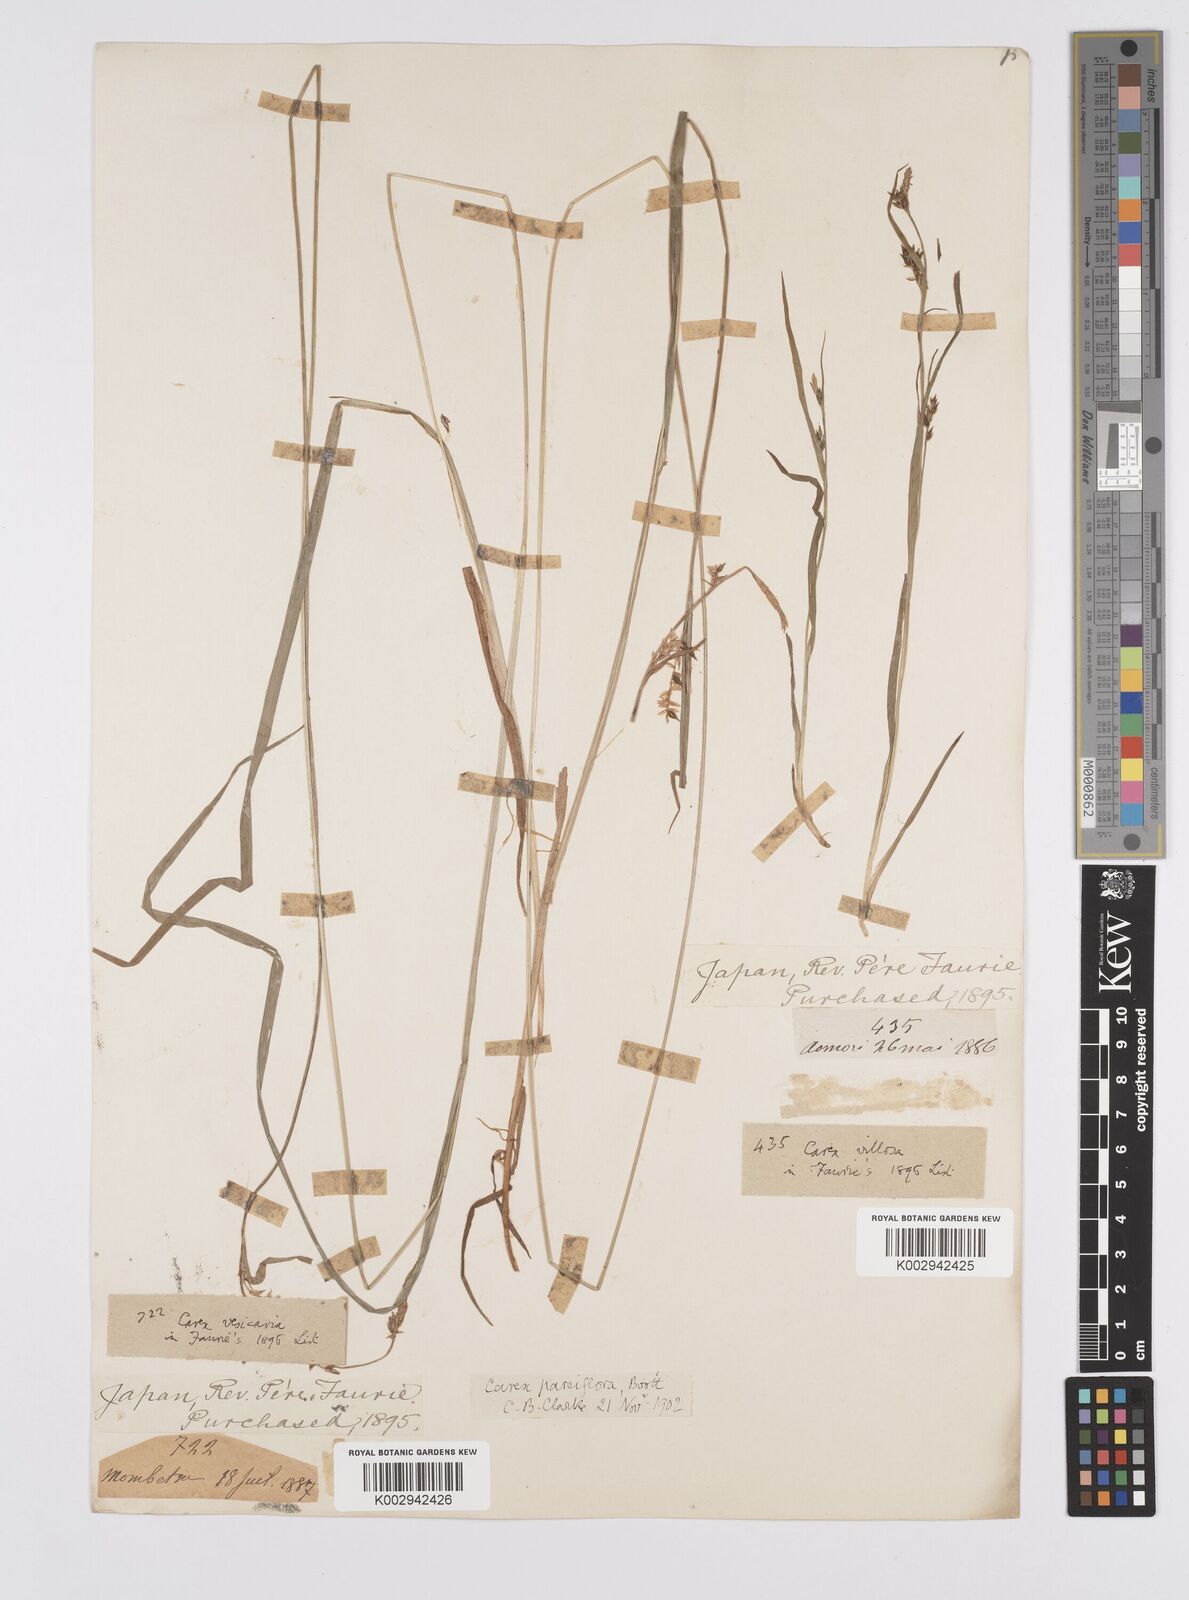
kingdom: Plantae
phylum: Tracheophyta
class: Liliopsida
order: Poales
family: Cyperaceae
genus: Carex
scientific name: Carex parciflora
